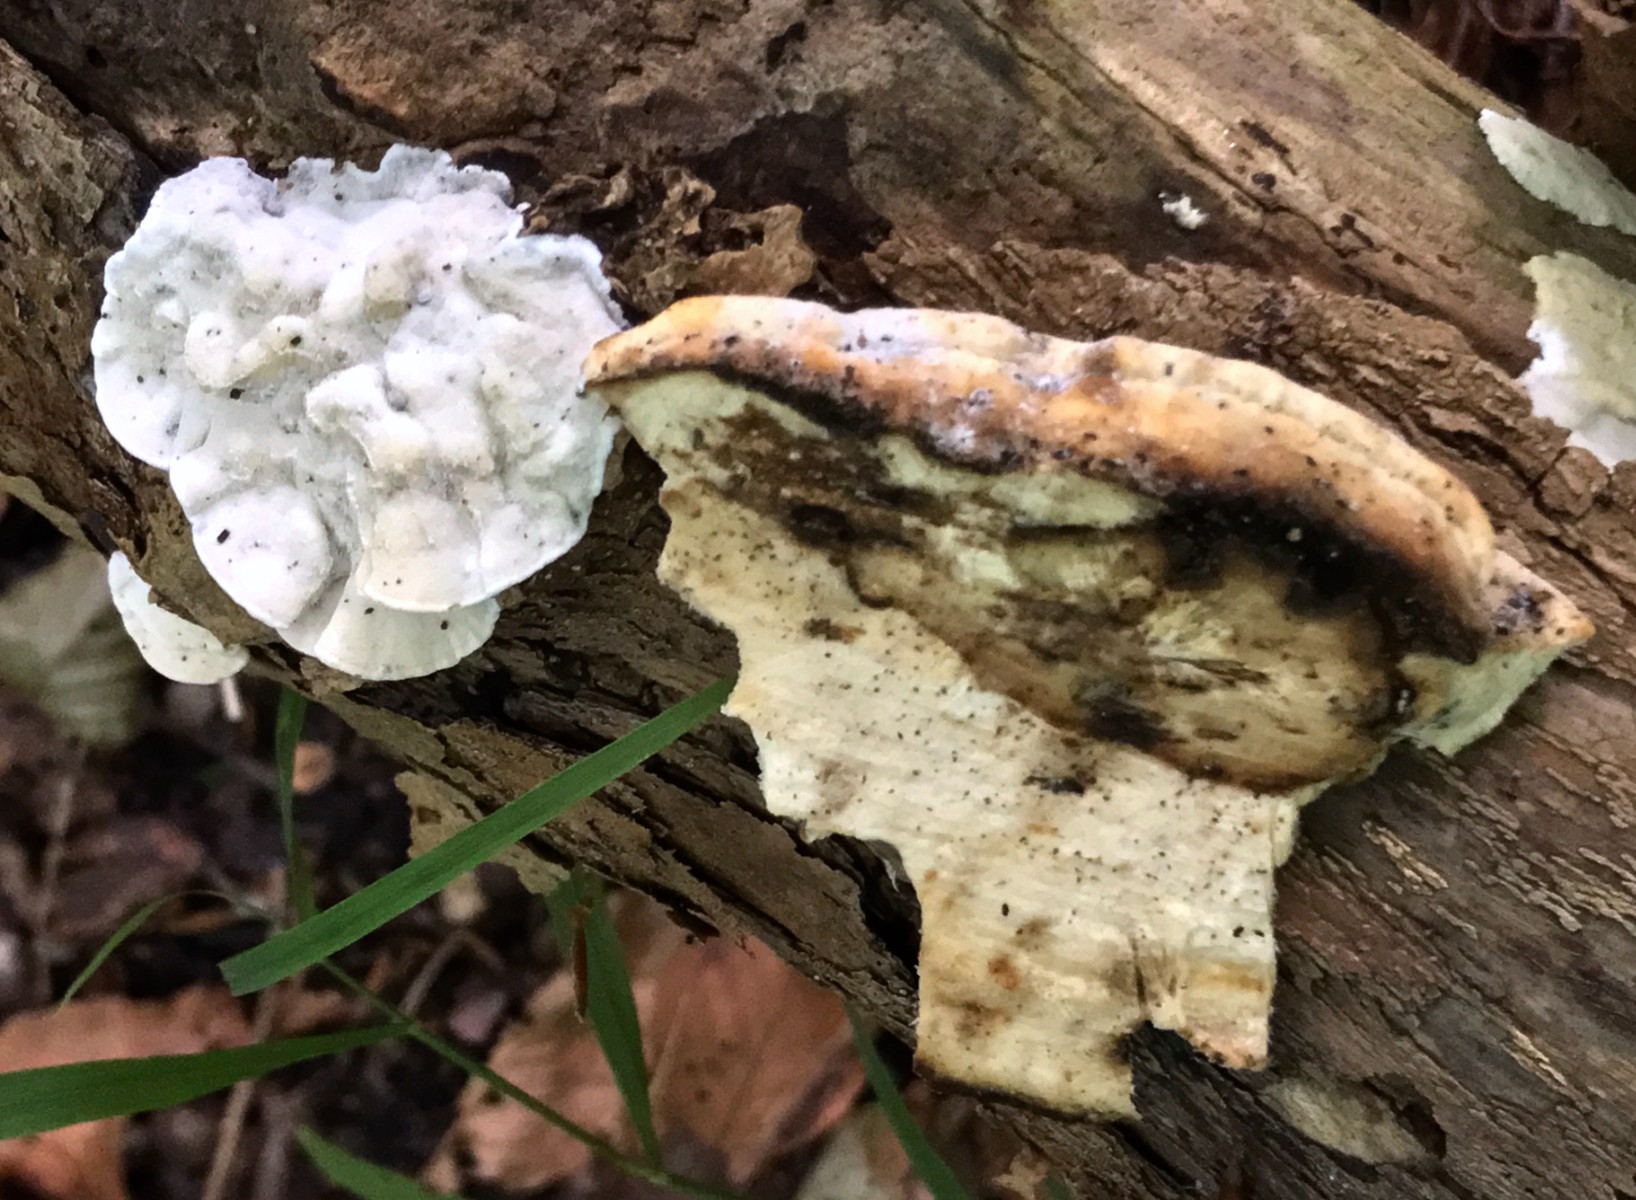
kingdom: Fungi
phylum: Basidiomycota
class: Agaricomycetes
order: Polyporales
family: Incrustoporiaceae
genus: Skeletocutis
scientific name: Skeletocutis nemoralis
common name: stor krystalporesvamp
